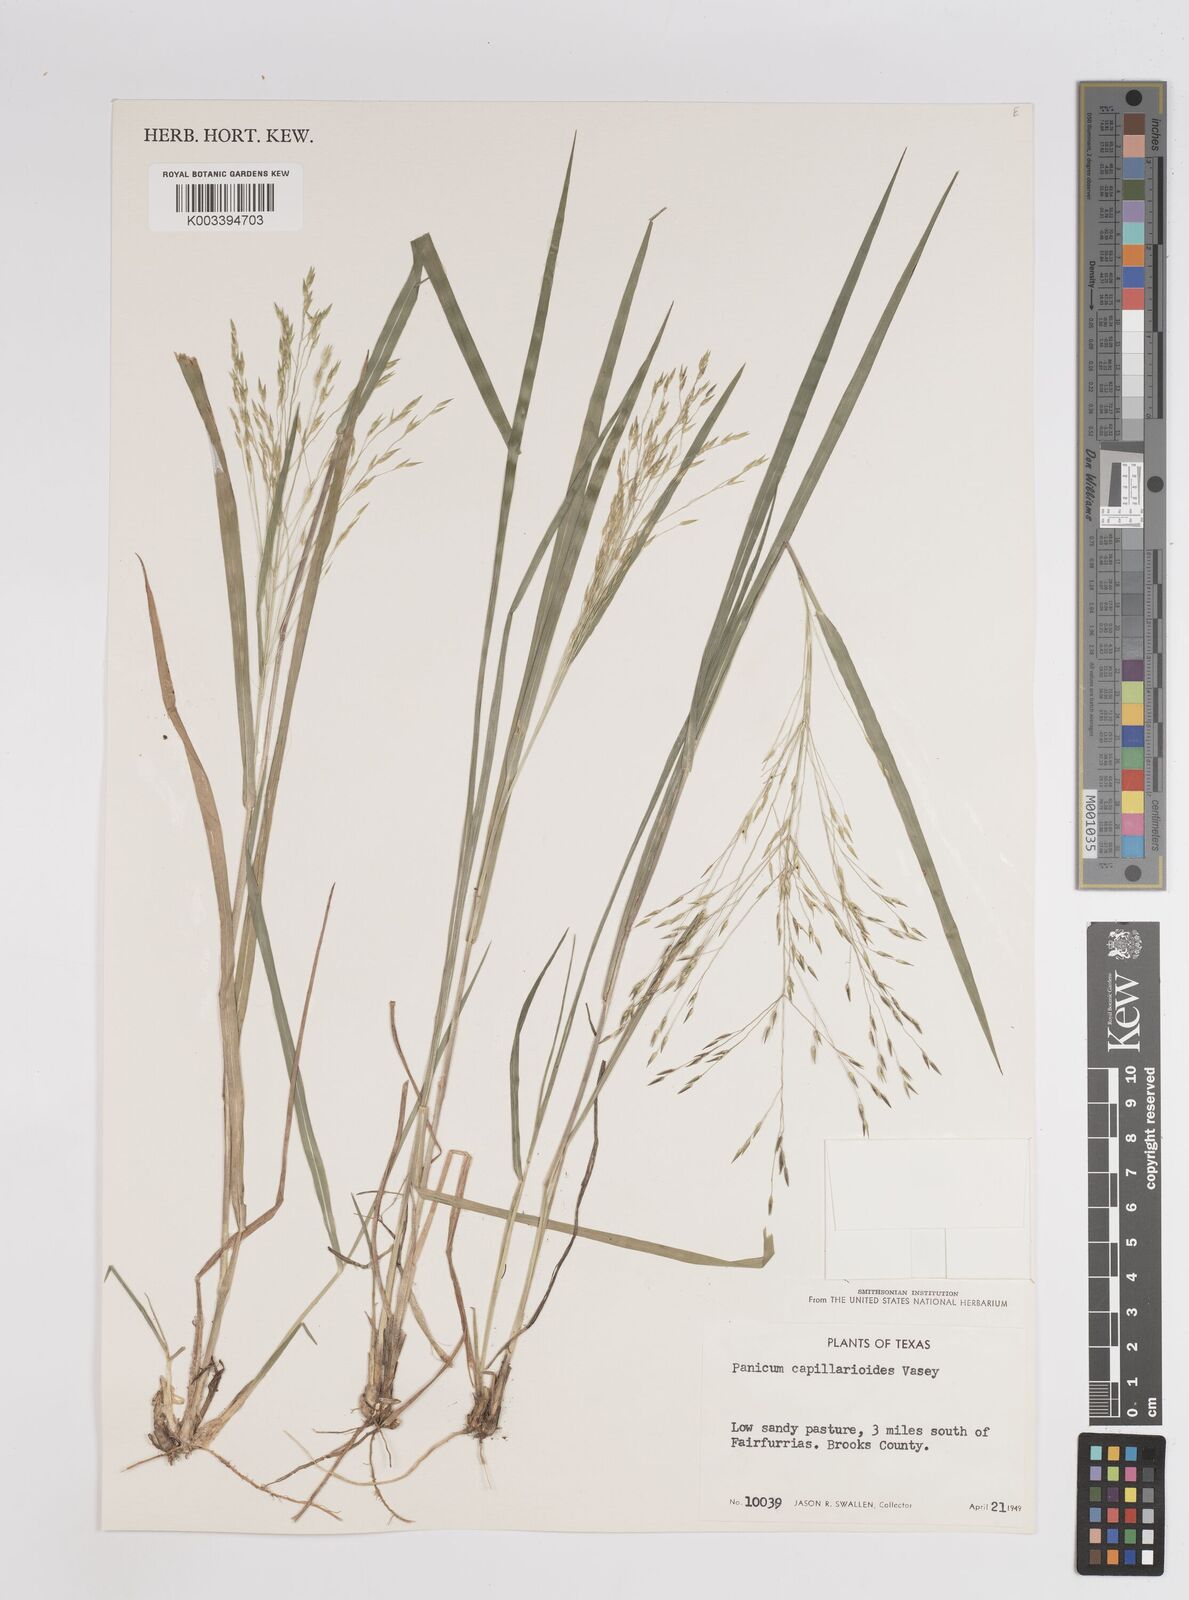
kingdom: Plantae
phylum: Tracheophyta
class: Liliopsida
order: Poales
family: Poaceae
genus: Panicum
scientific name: Panicum capillarioides
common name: Long-beak witchgrass
